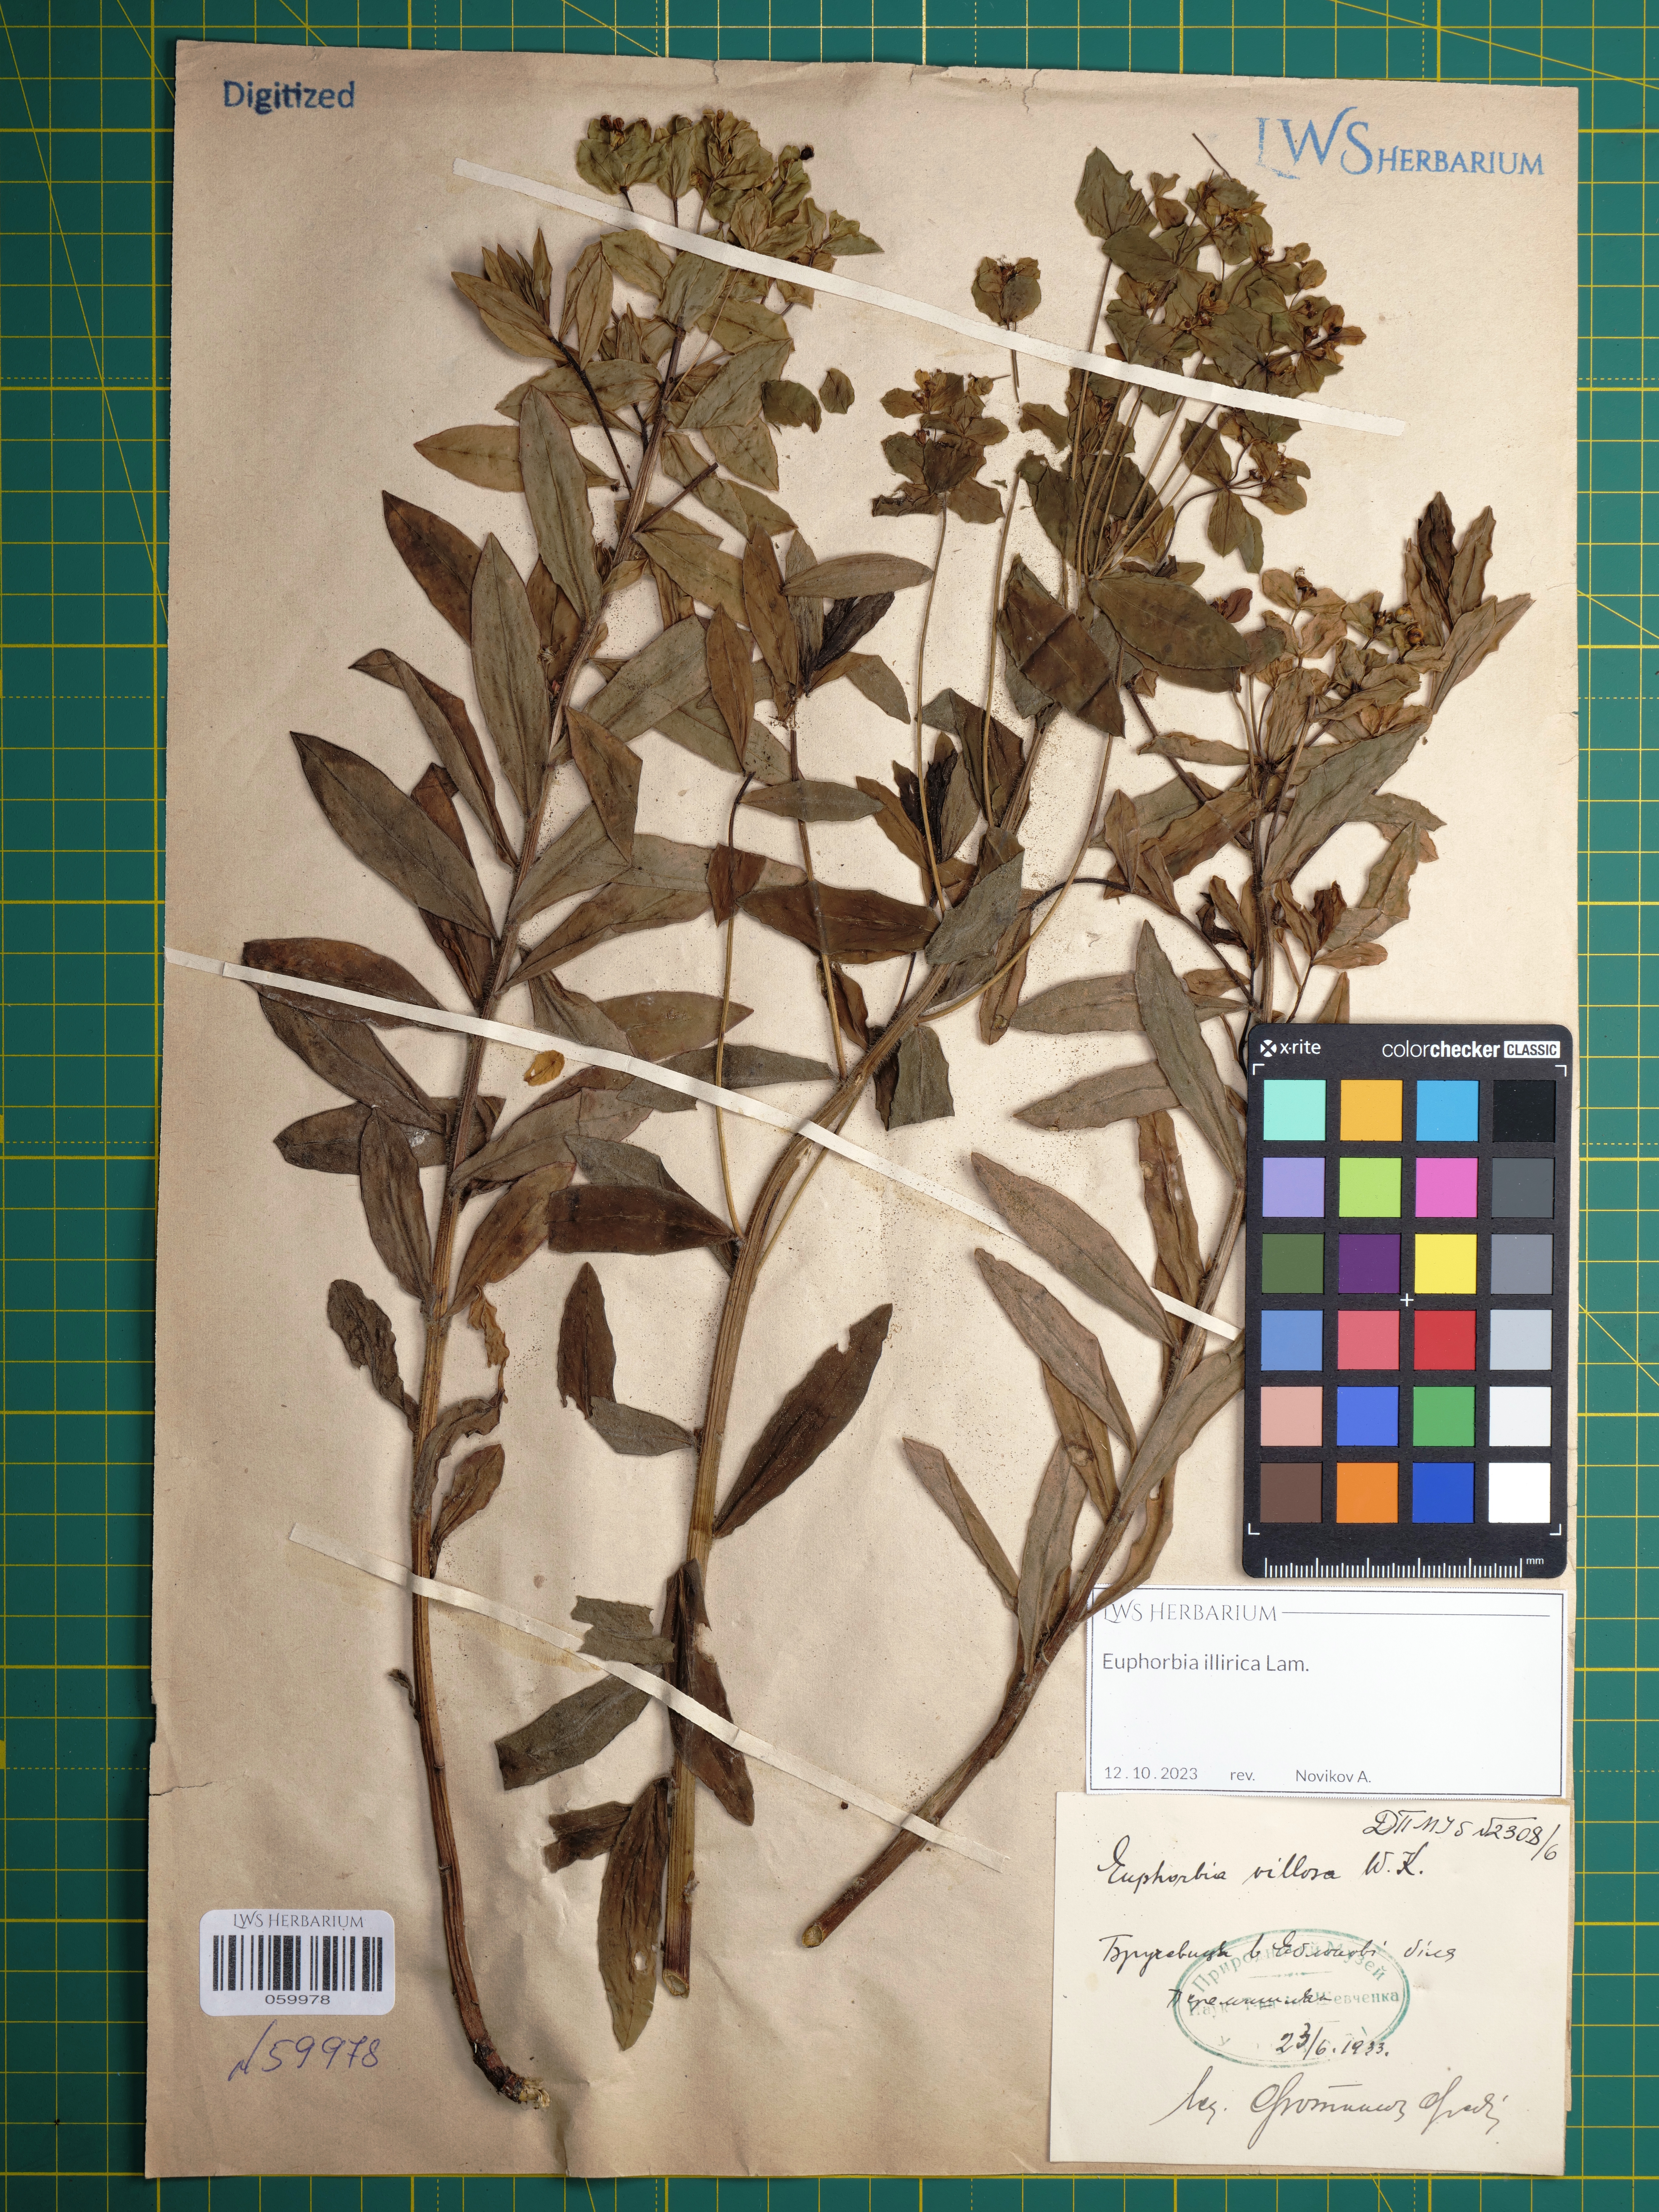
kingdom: Plantae
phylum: Tracheophyta
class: Magnoliopsida
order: Malpighiales
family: Euphorbiaceae
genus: Euphorbia
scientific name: Euphorbia illirica
